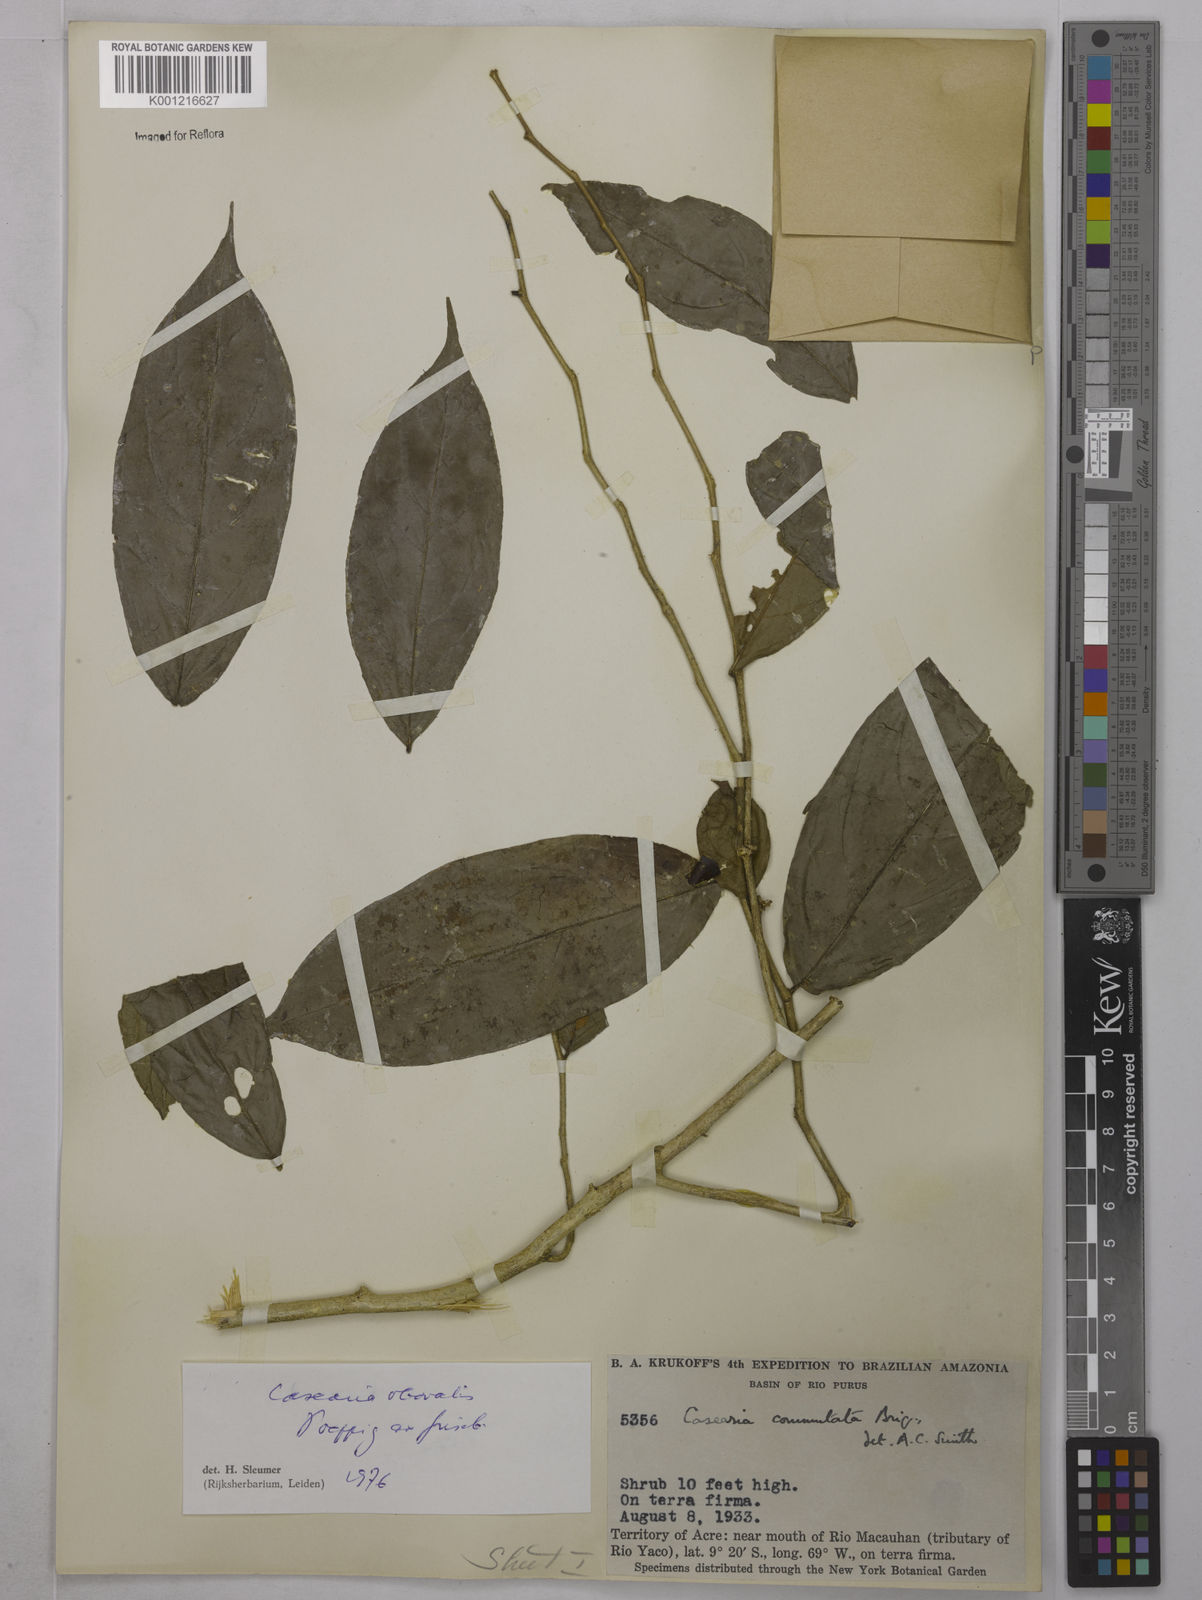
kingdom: Plantae
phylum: Tracheophyta
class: Magnoliopsida
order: Malpighiales
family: Salicaceae
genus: Casearia
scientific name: Casearia obovalis
